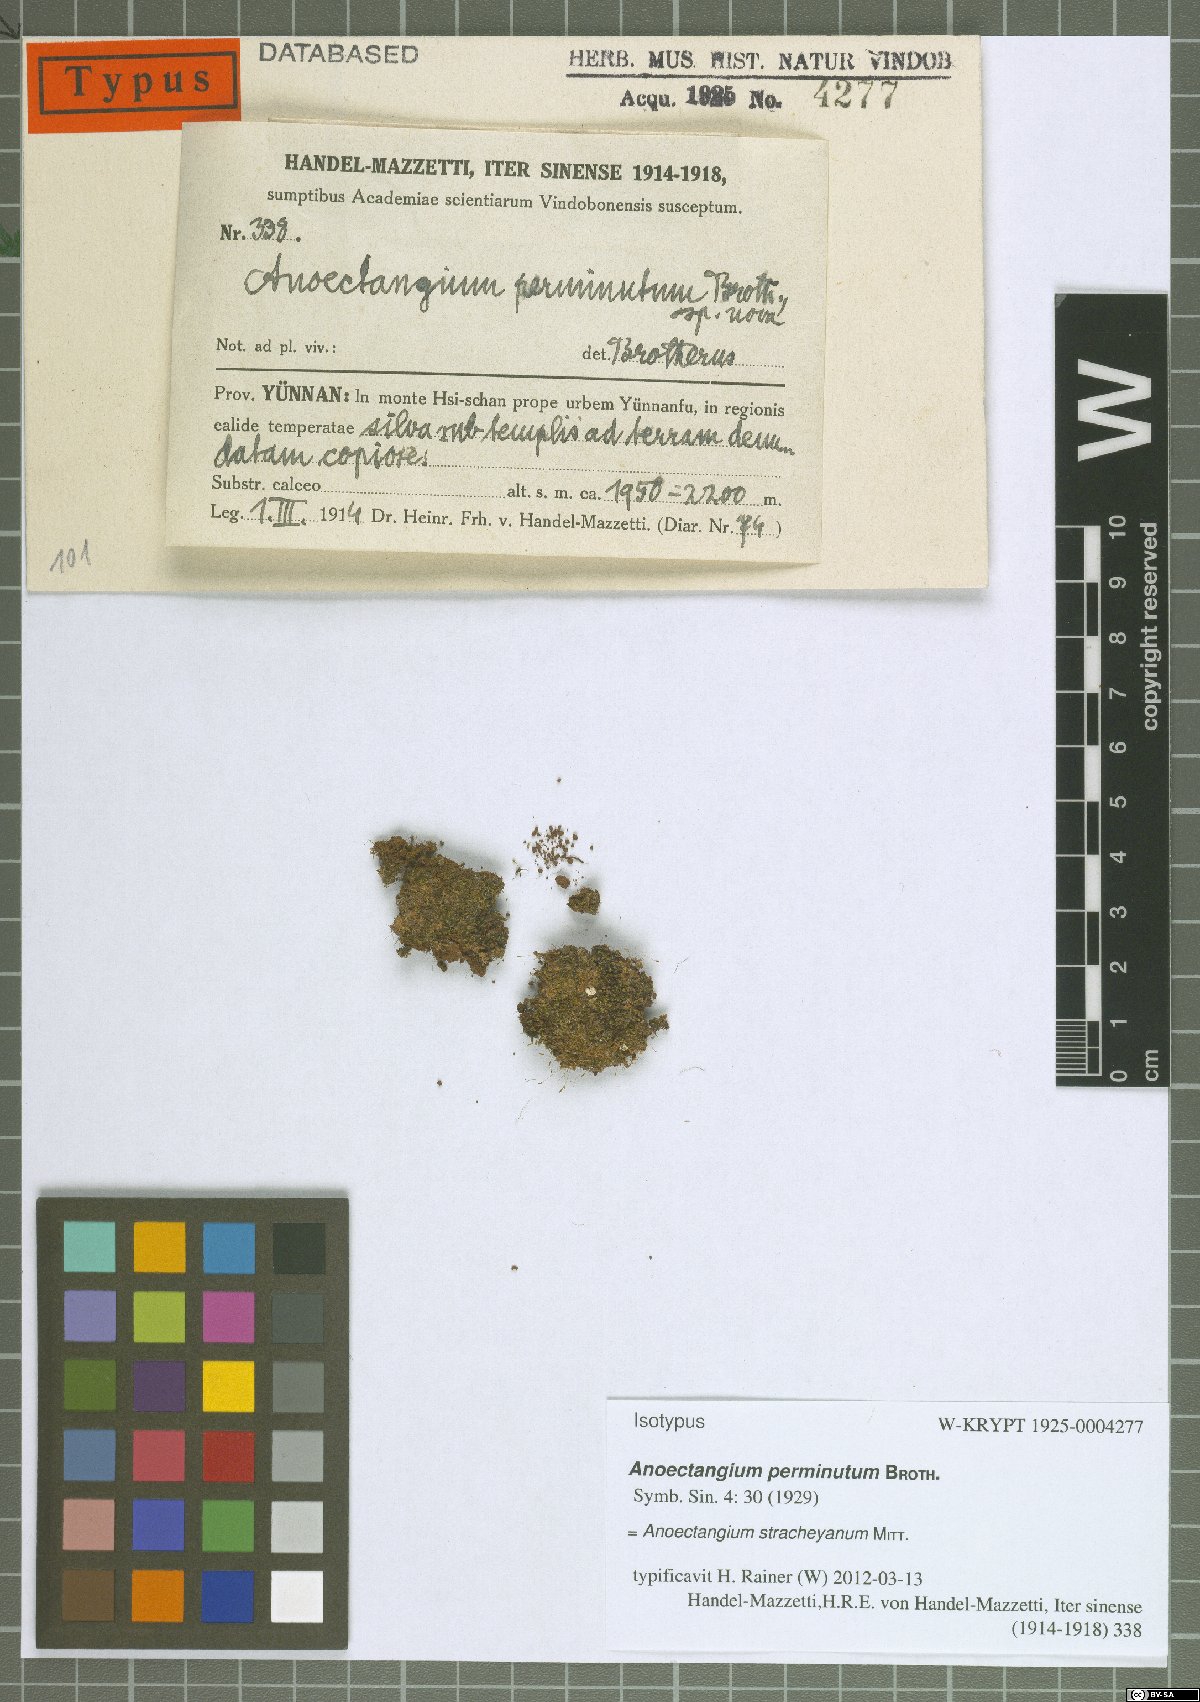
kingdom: Plantae
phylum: Bryophyta
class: Bryopsida
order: Pottiales
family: Pottiaceae
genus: Anoectangium
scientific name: Anoectangium stracheyanum
